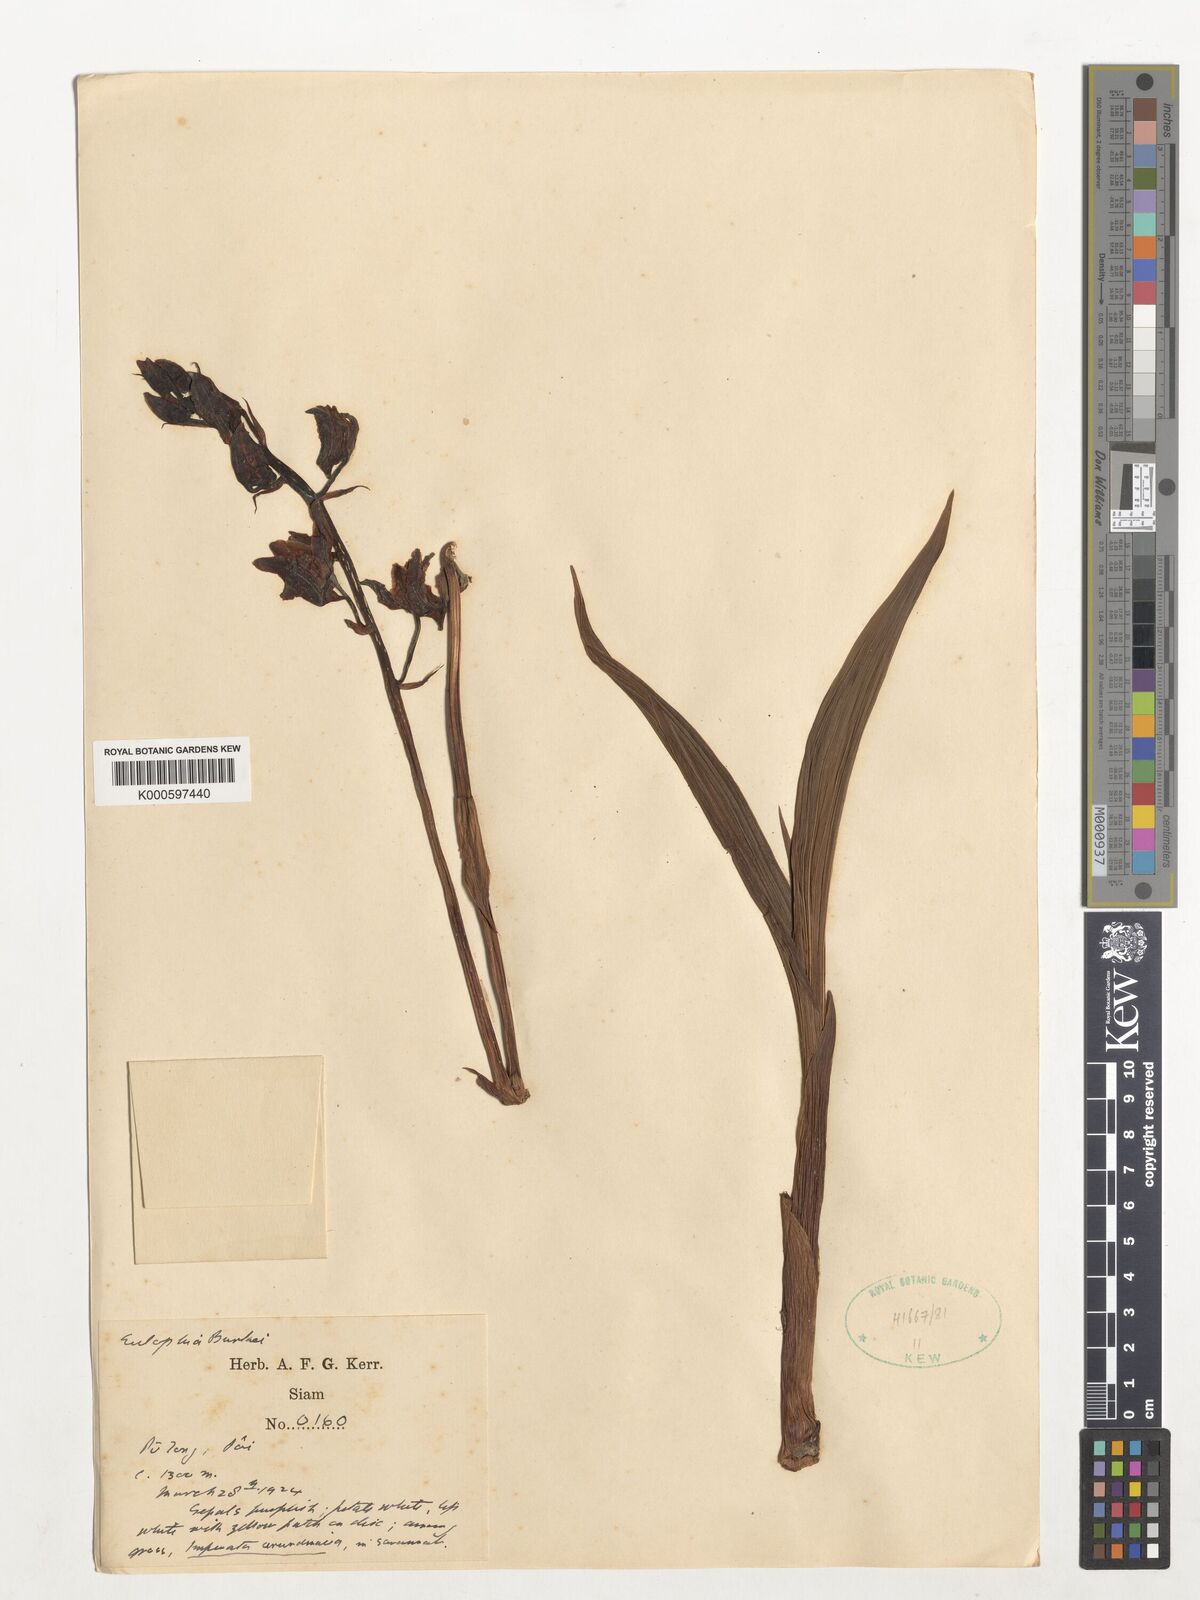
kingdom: Plantae
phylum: Tracheophyta
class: Liliopsida
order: Asparagales
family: Orchidaceae
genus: Eulophia
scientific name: Eulophia nuda
